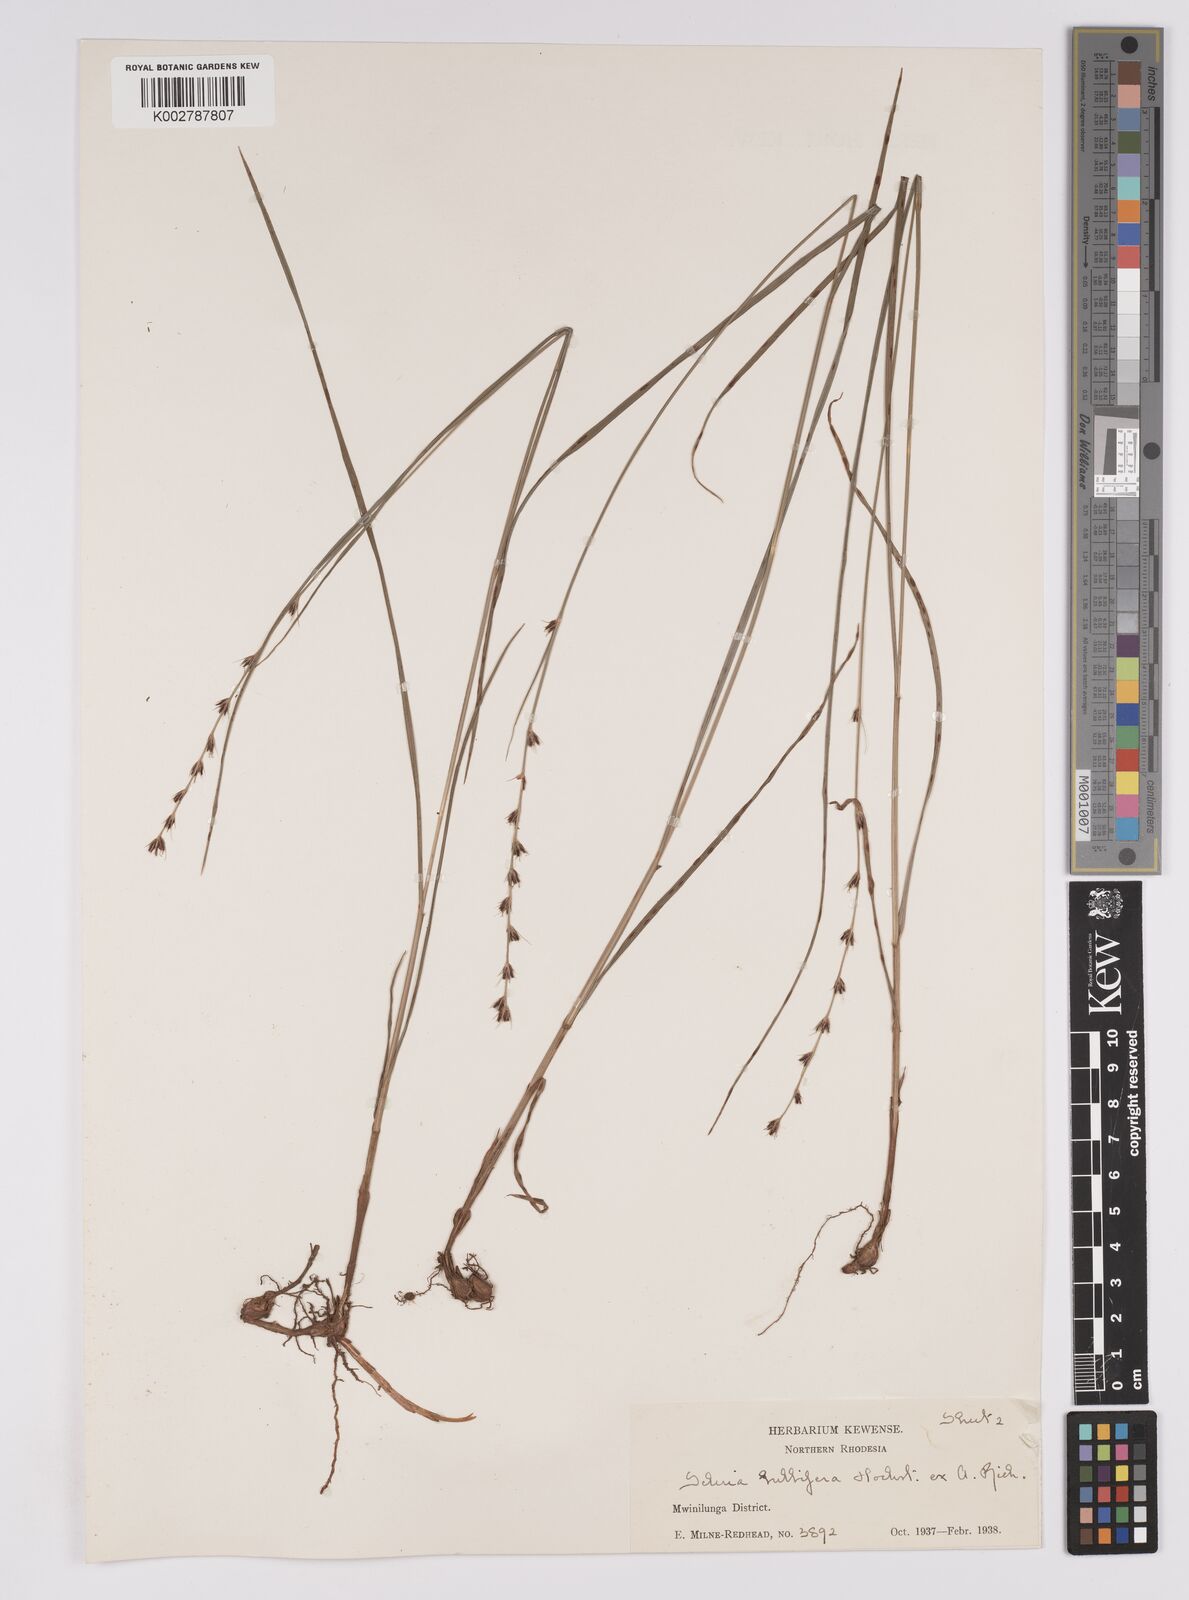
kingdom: Plantae
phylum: Tracheophyta
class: Liliopsida
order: Poales
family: Cyperaceae
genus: Scleria
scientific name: Scleria bulbifera
